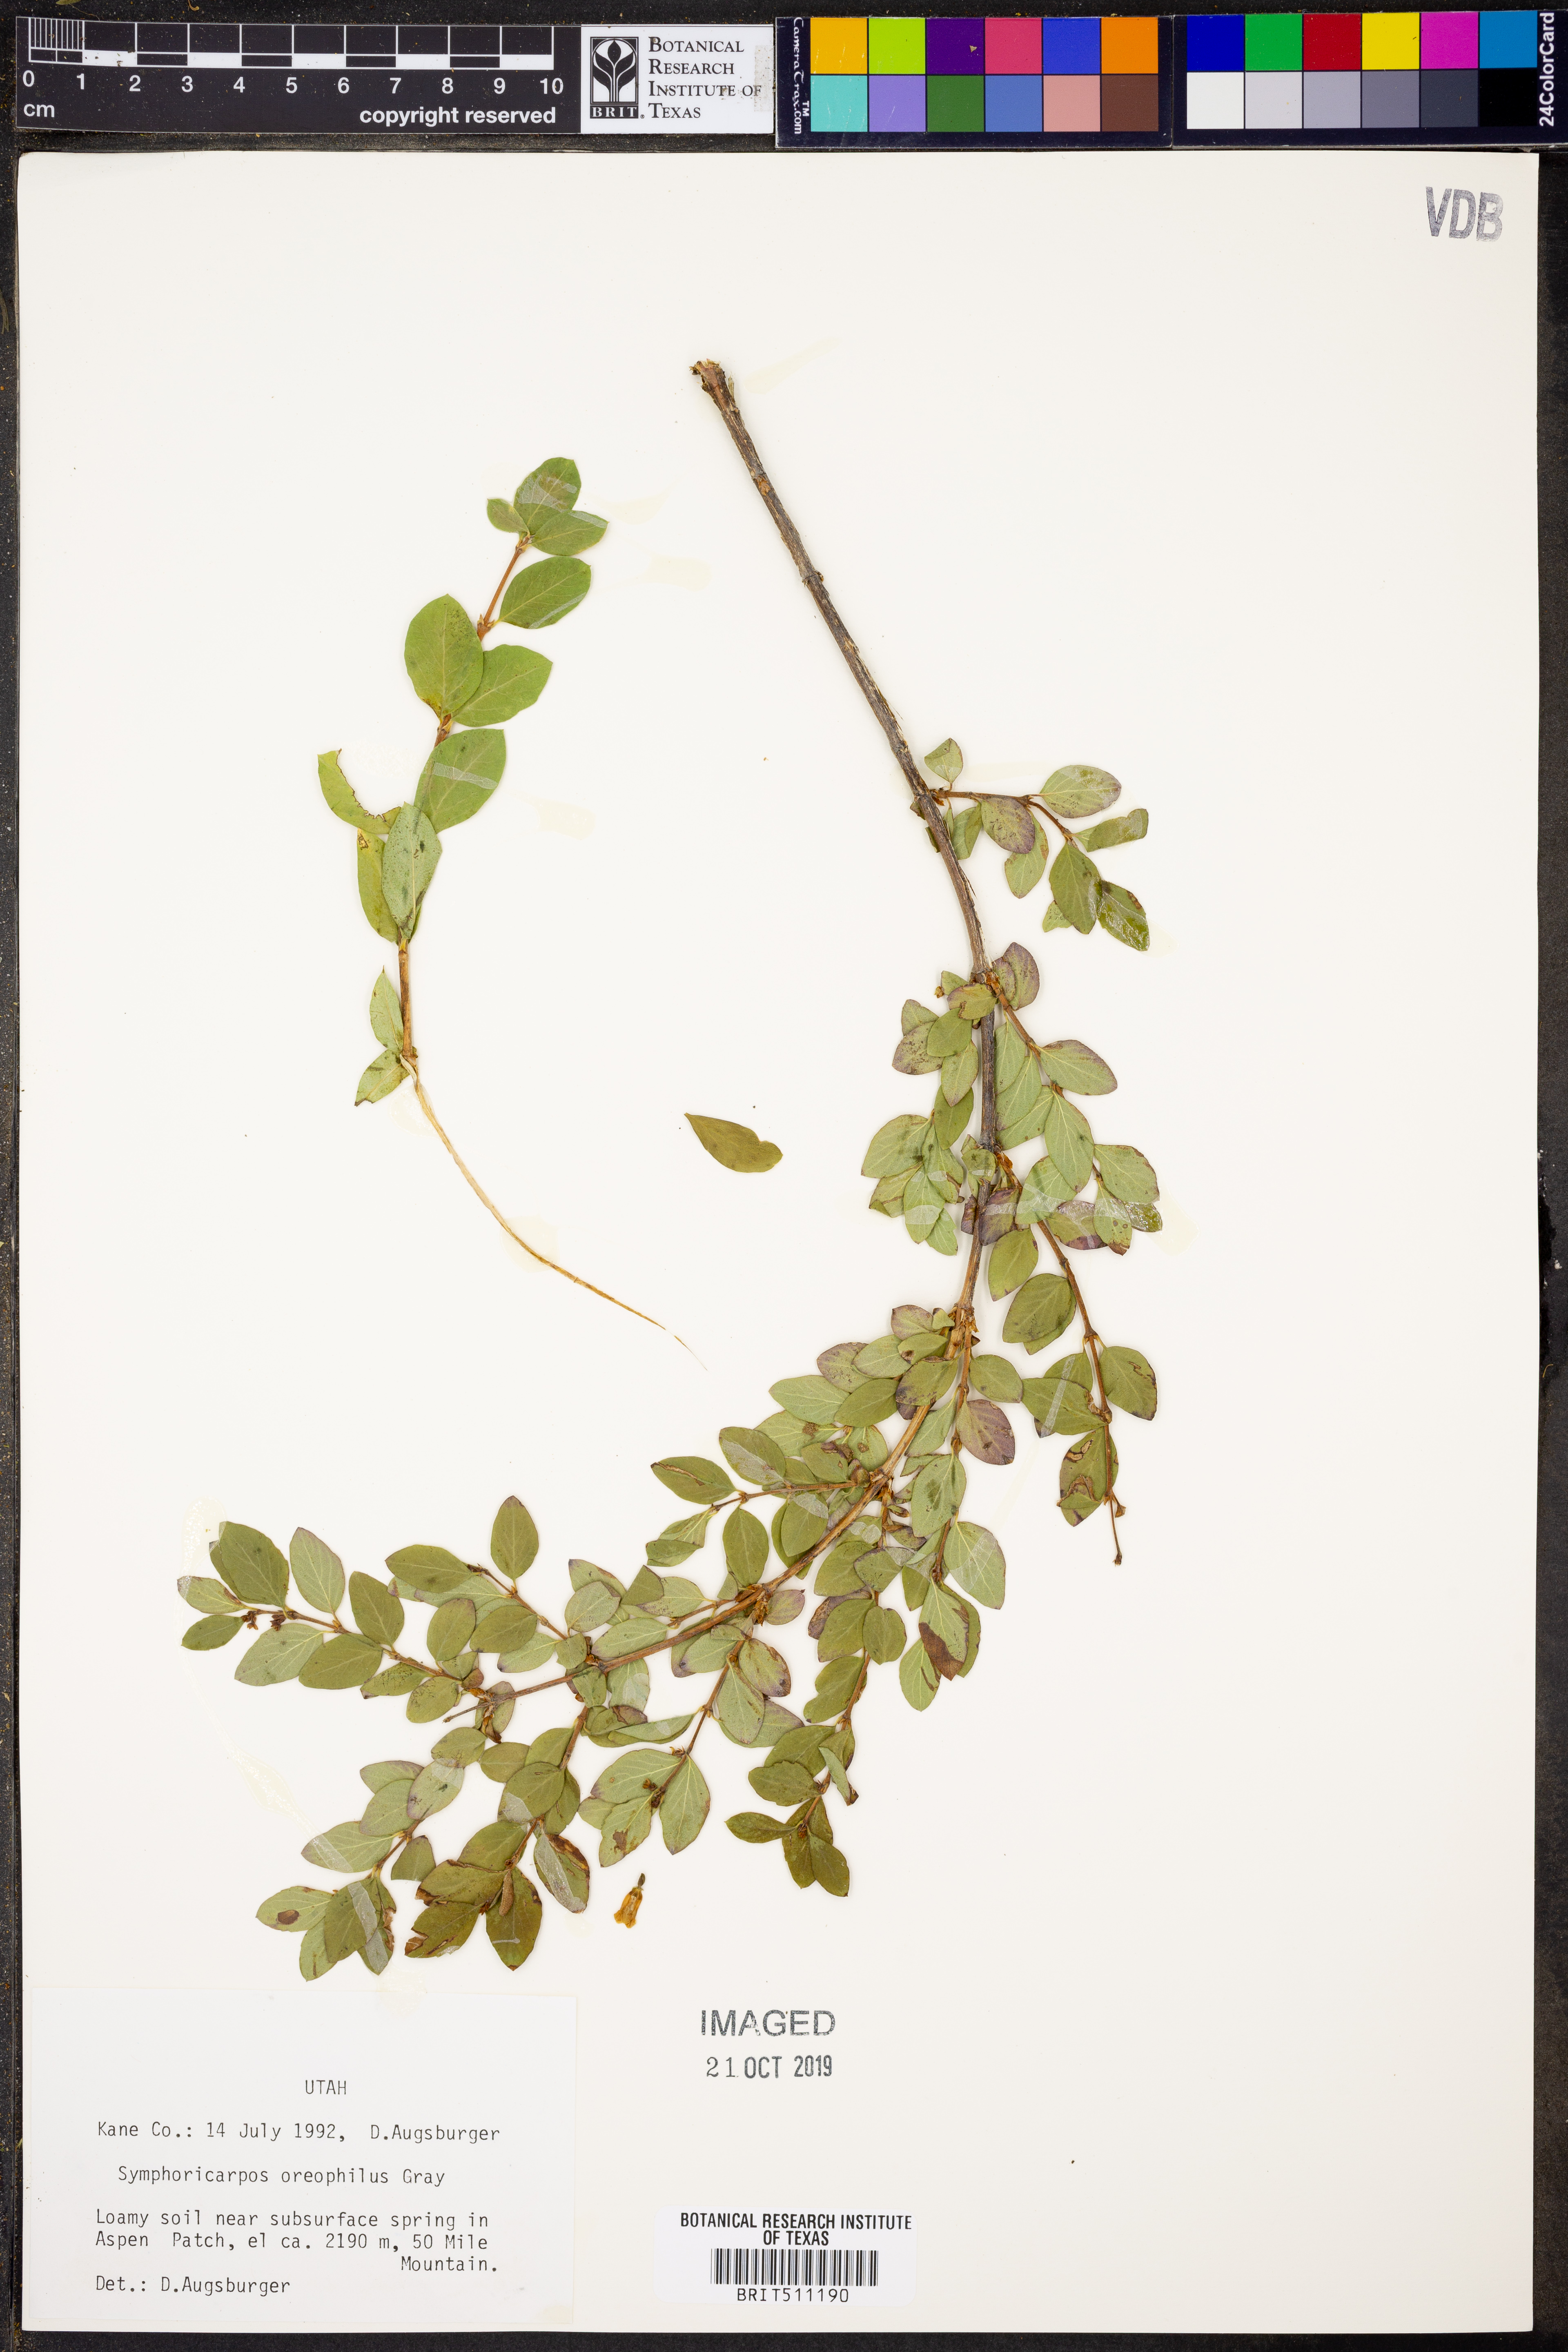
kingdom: Plantae
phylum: Tracheophyta
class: Magnoliopsida
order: Dipsacales
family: Caprifoliaceae
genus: Symphoricarpos
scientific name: Symphoricarpos oreophilus
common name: Mountain snowberry
